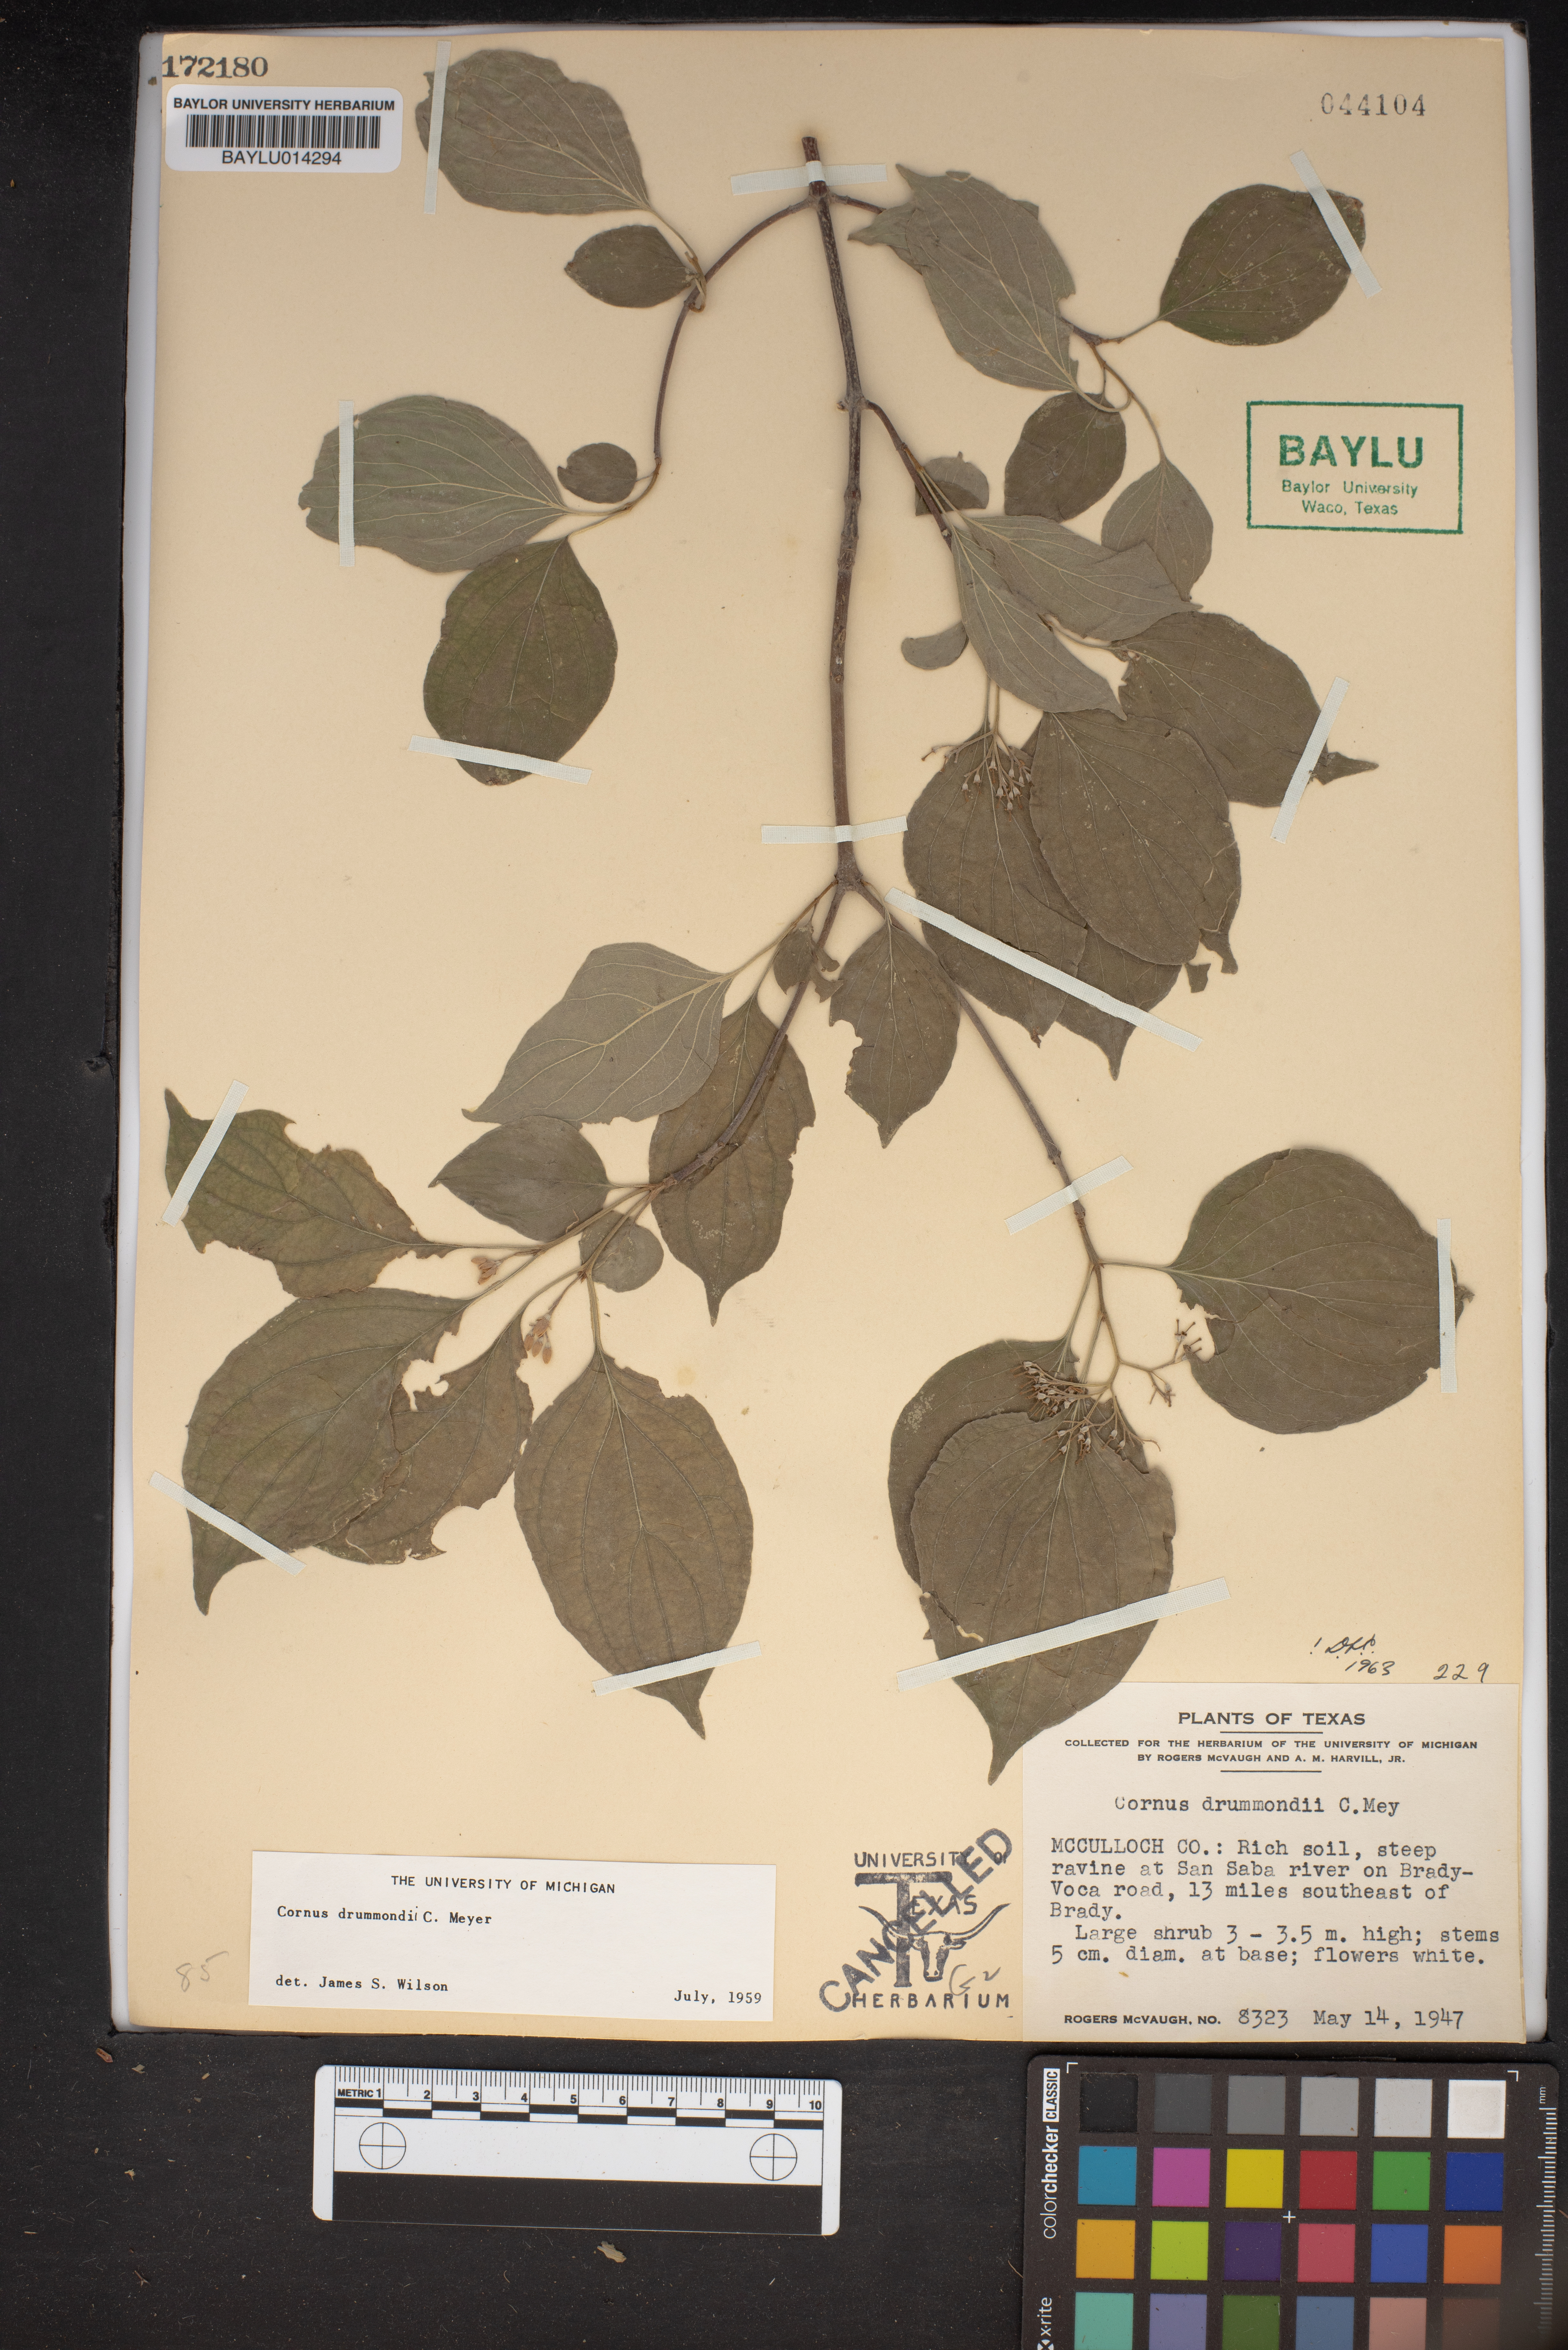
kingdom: Plantae
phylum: Tracheophyta
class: Magnoliopsida
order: Cornales
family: Cornaceae
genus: Cornus
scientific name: Cornus drummondii
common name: Rough-leaf dogwood
